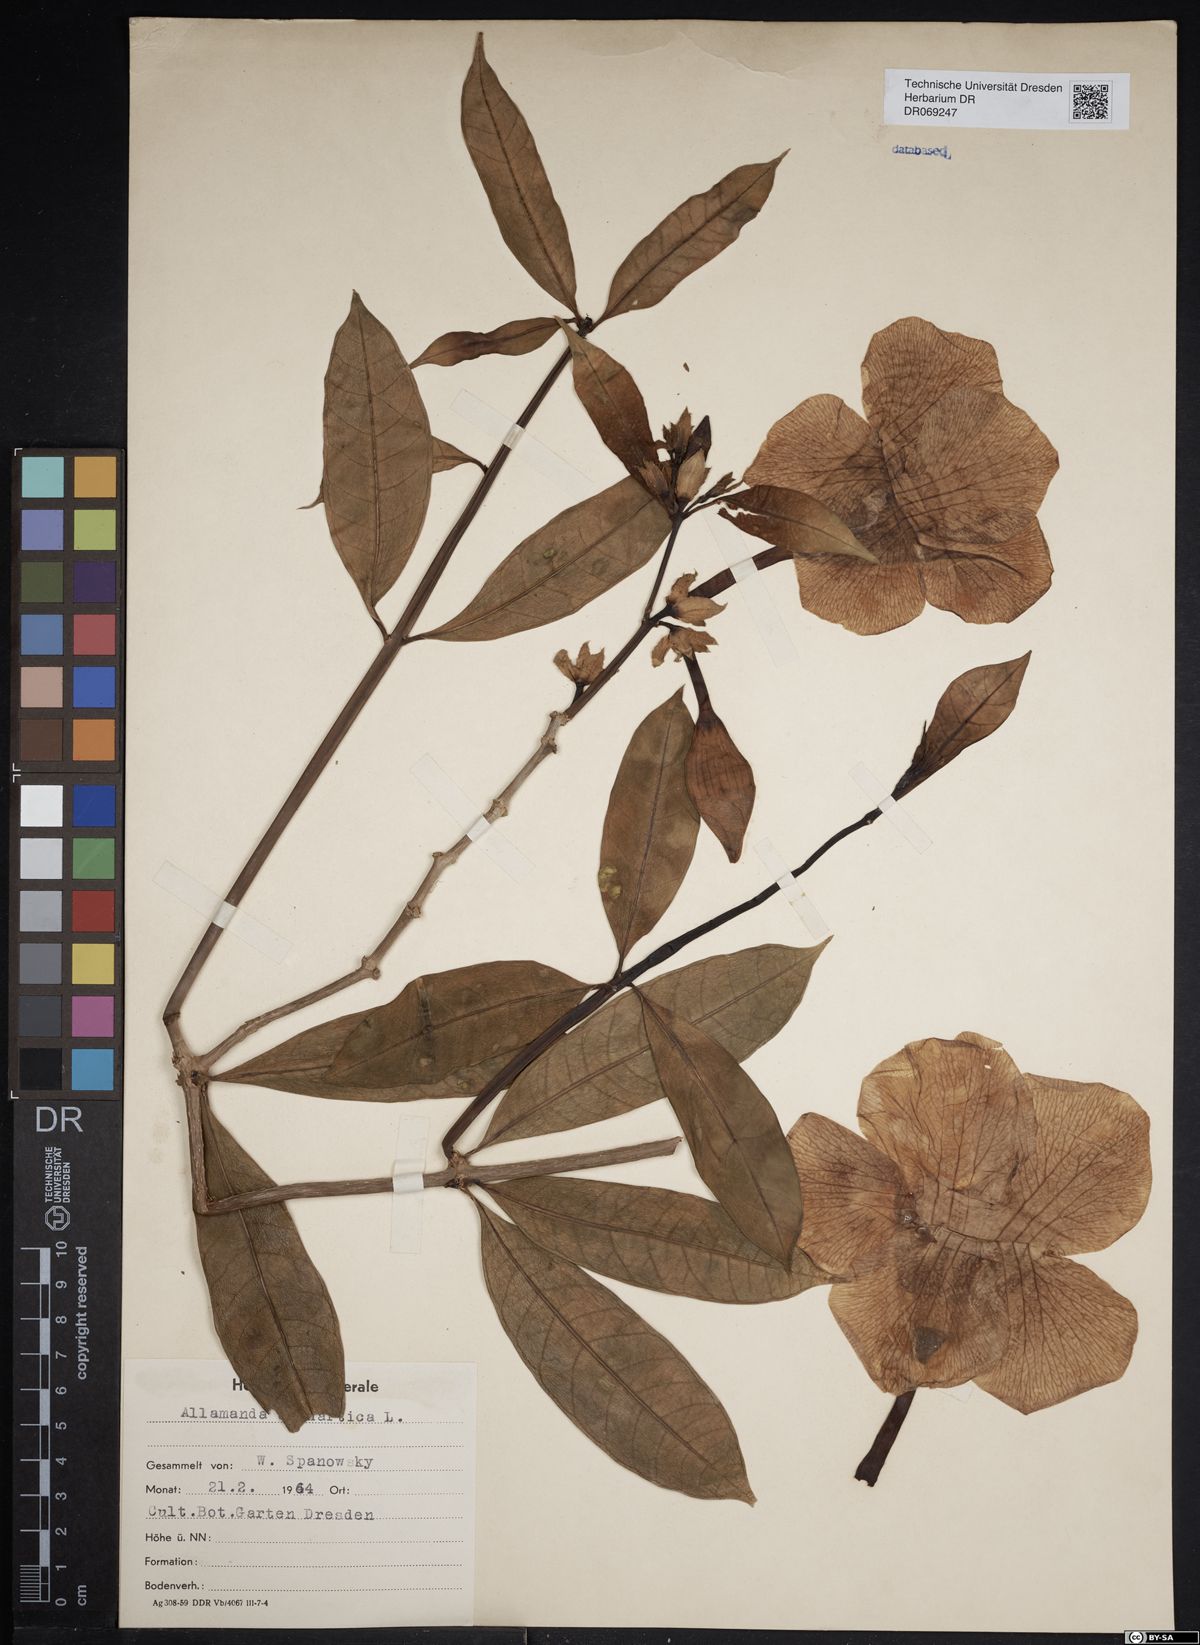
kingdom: Plantae
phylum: Tracheophyta
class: Magnoliopsida
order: Gentianales
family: Apocynaceae
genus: Allamanda
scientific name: Allamanda cathartica
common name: Golden trumpet
